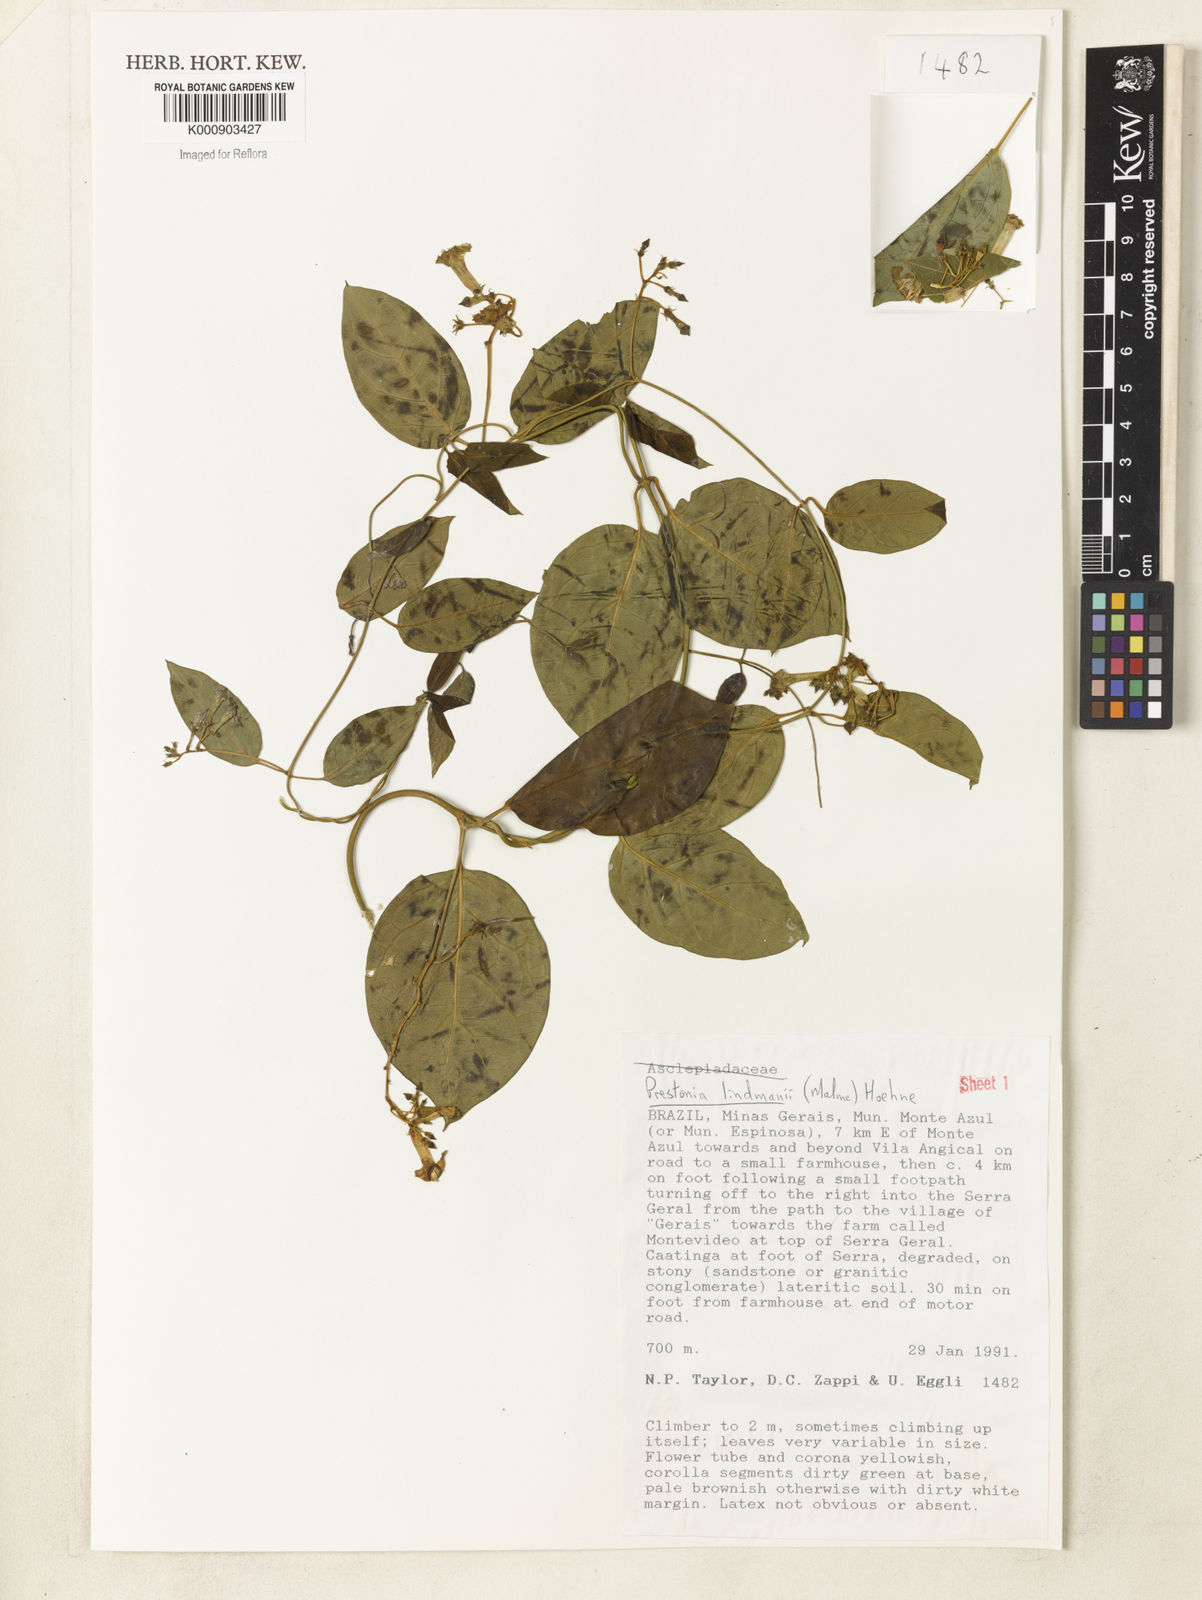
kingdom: Plantae
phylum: Tracheophyta
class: Magnoliopsida
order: Gentianales
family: Apocynaceae
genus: Prestonia
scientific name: Prestonia lindmanii
